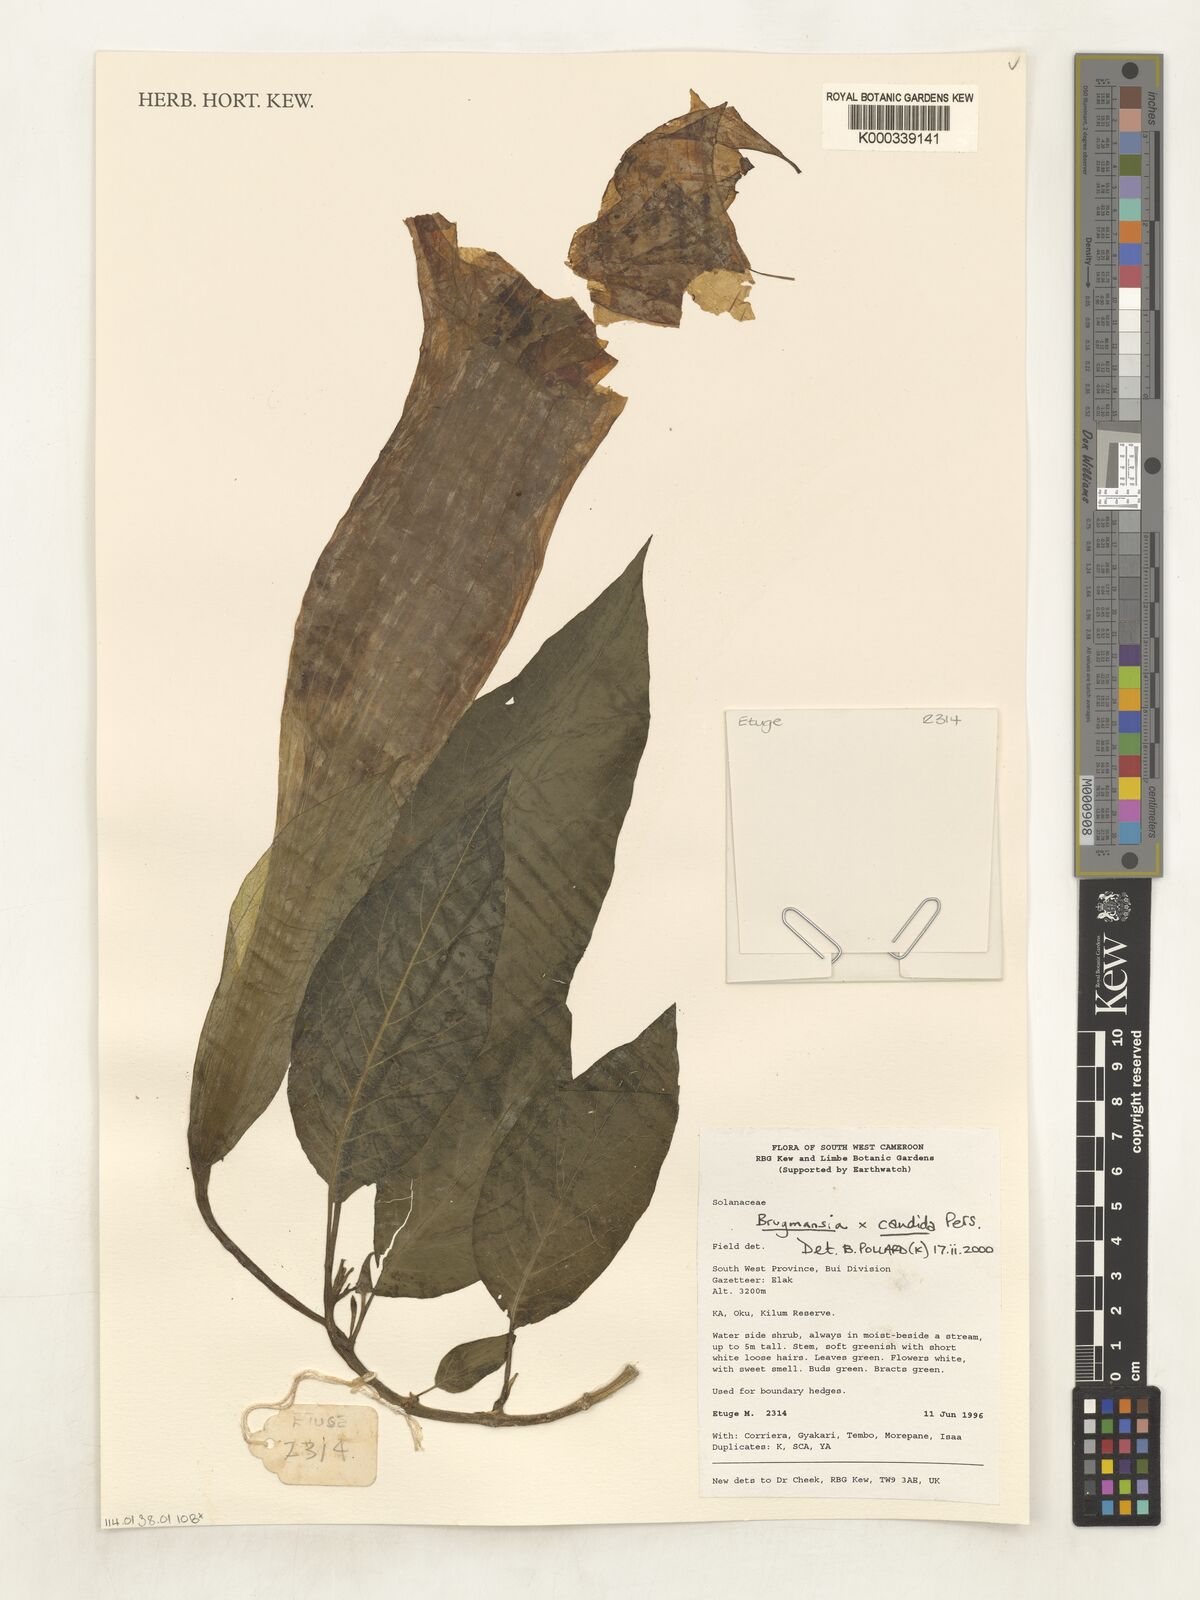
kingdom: Plantae
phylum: Tracheophyta
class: Magnoliopsida
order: Solanales
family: Solanaceae
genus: Brugmansia
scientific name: Brugmansia candida
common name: Angel's-trumpet
